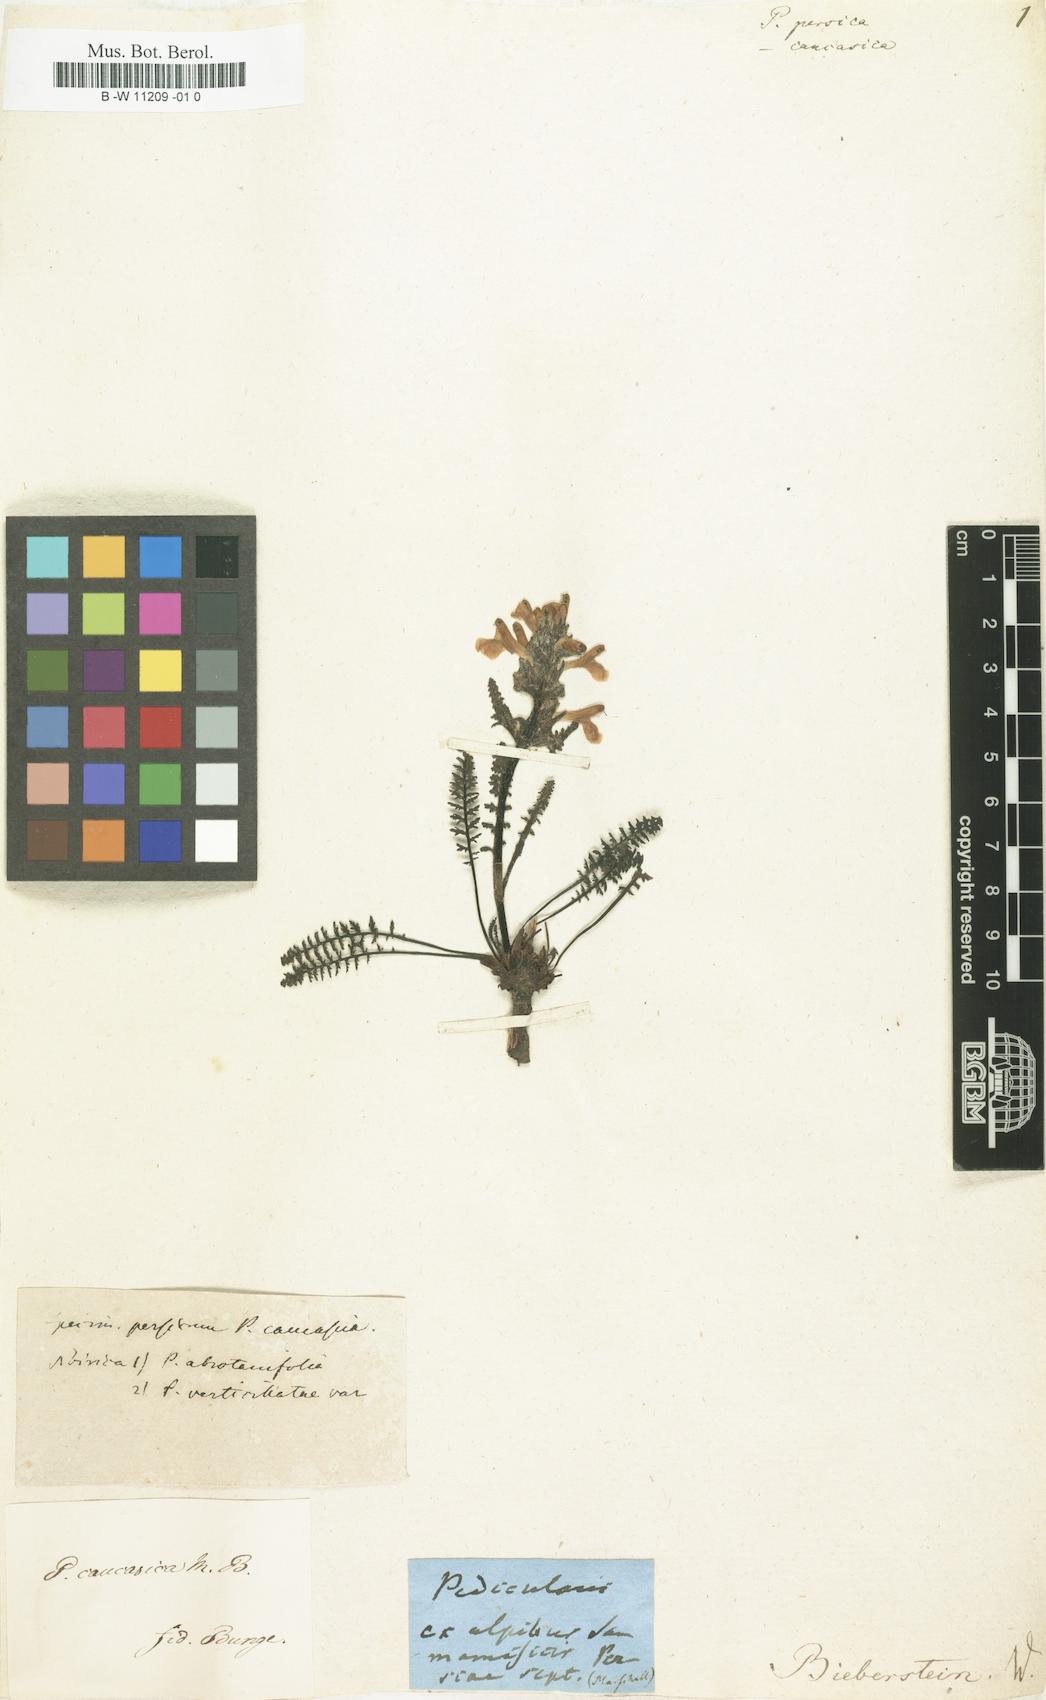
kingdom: Plantae
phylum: Tracheophyta
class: Magnoliopsida
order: Lamiales
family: Orobanchaceae
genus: Pedicularis
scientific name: Pedicularis caucasica
